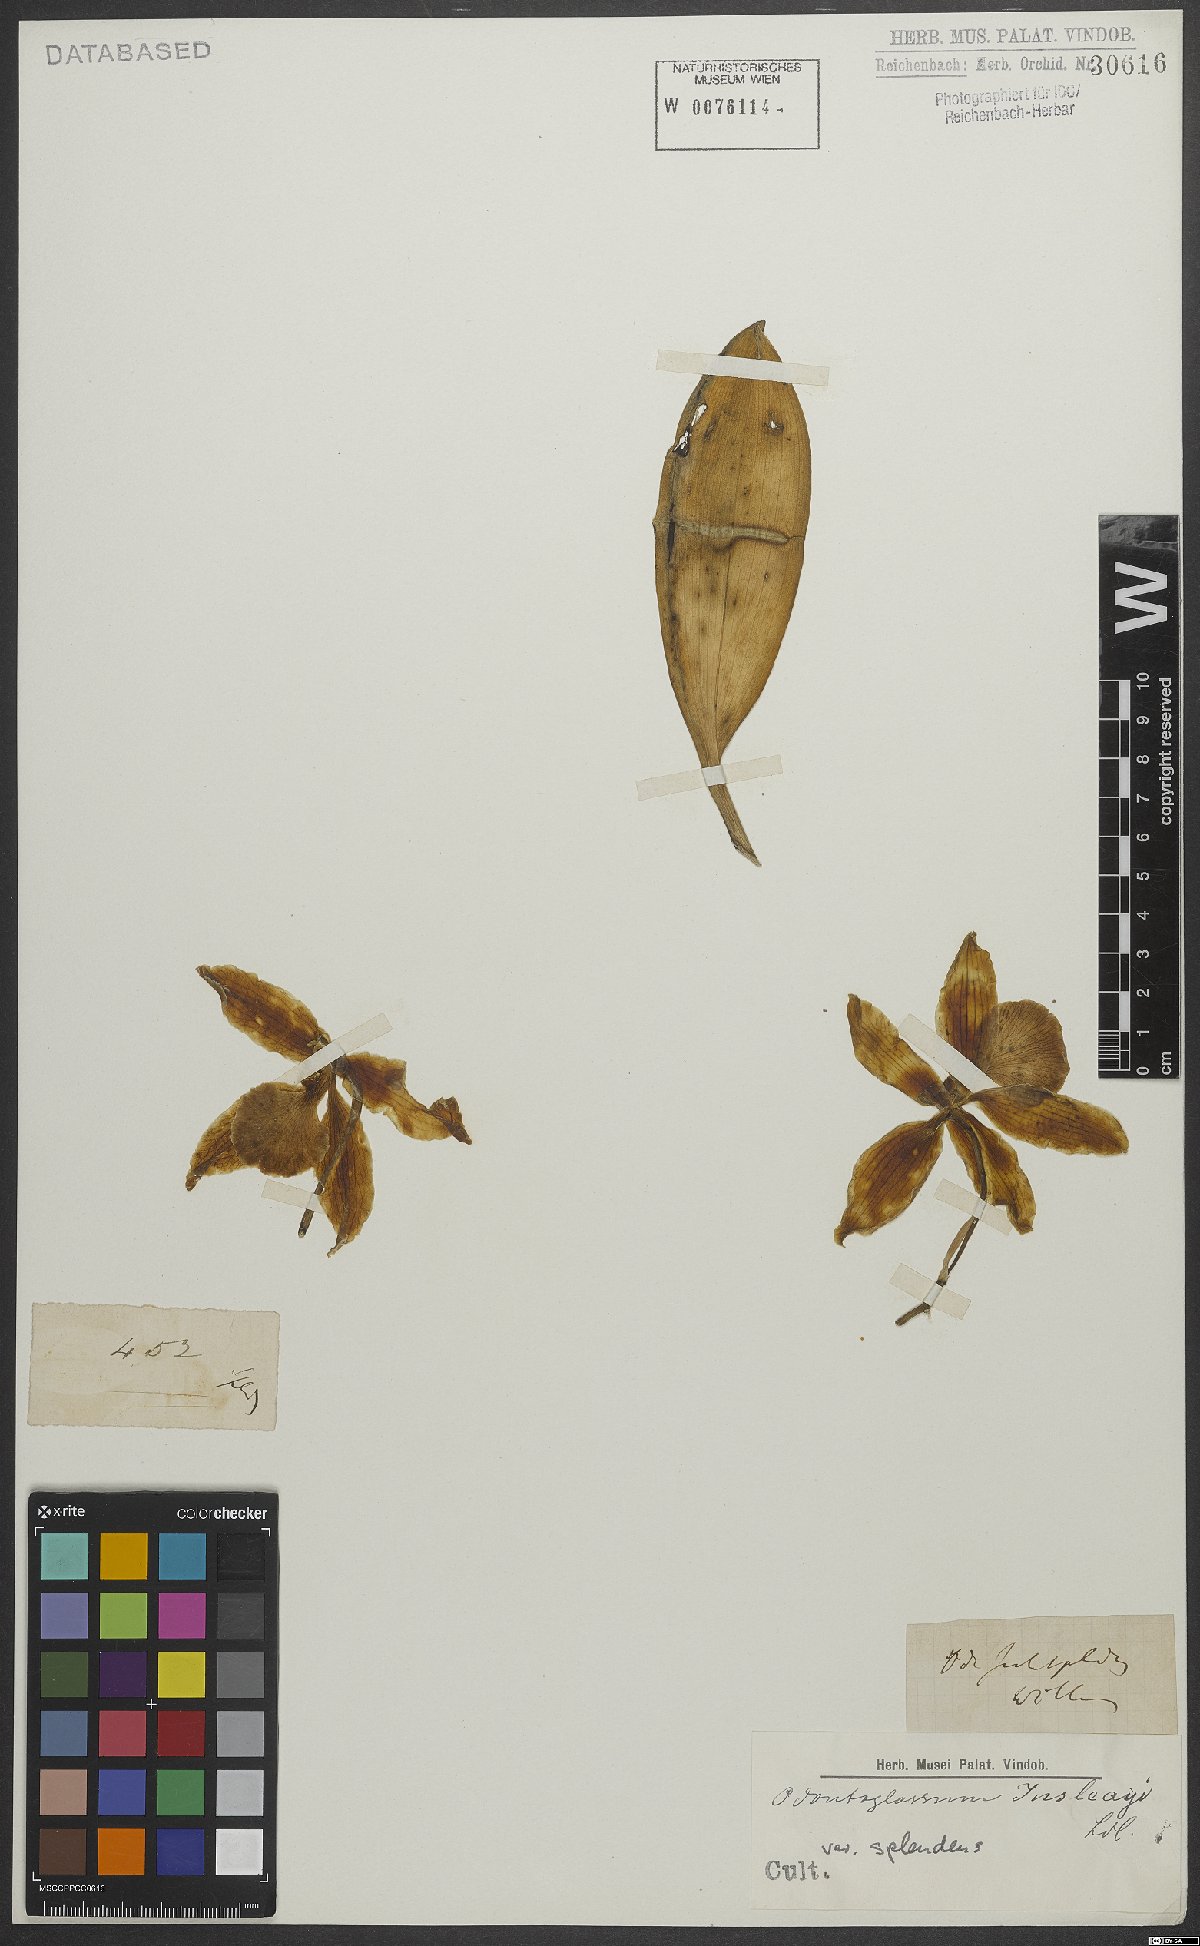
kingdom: Plantae
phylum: Tracheophyta
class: Liliopsida
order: Asparagales
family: Orchidaceae
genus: Rossioglossum
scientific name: Rossioglossum splendens
